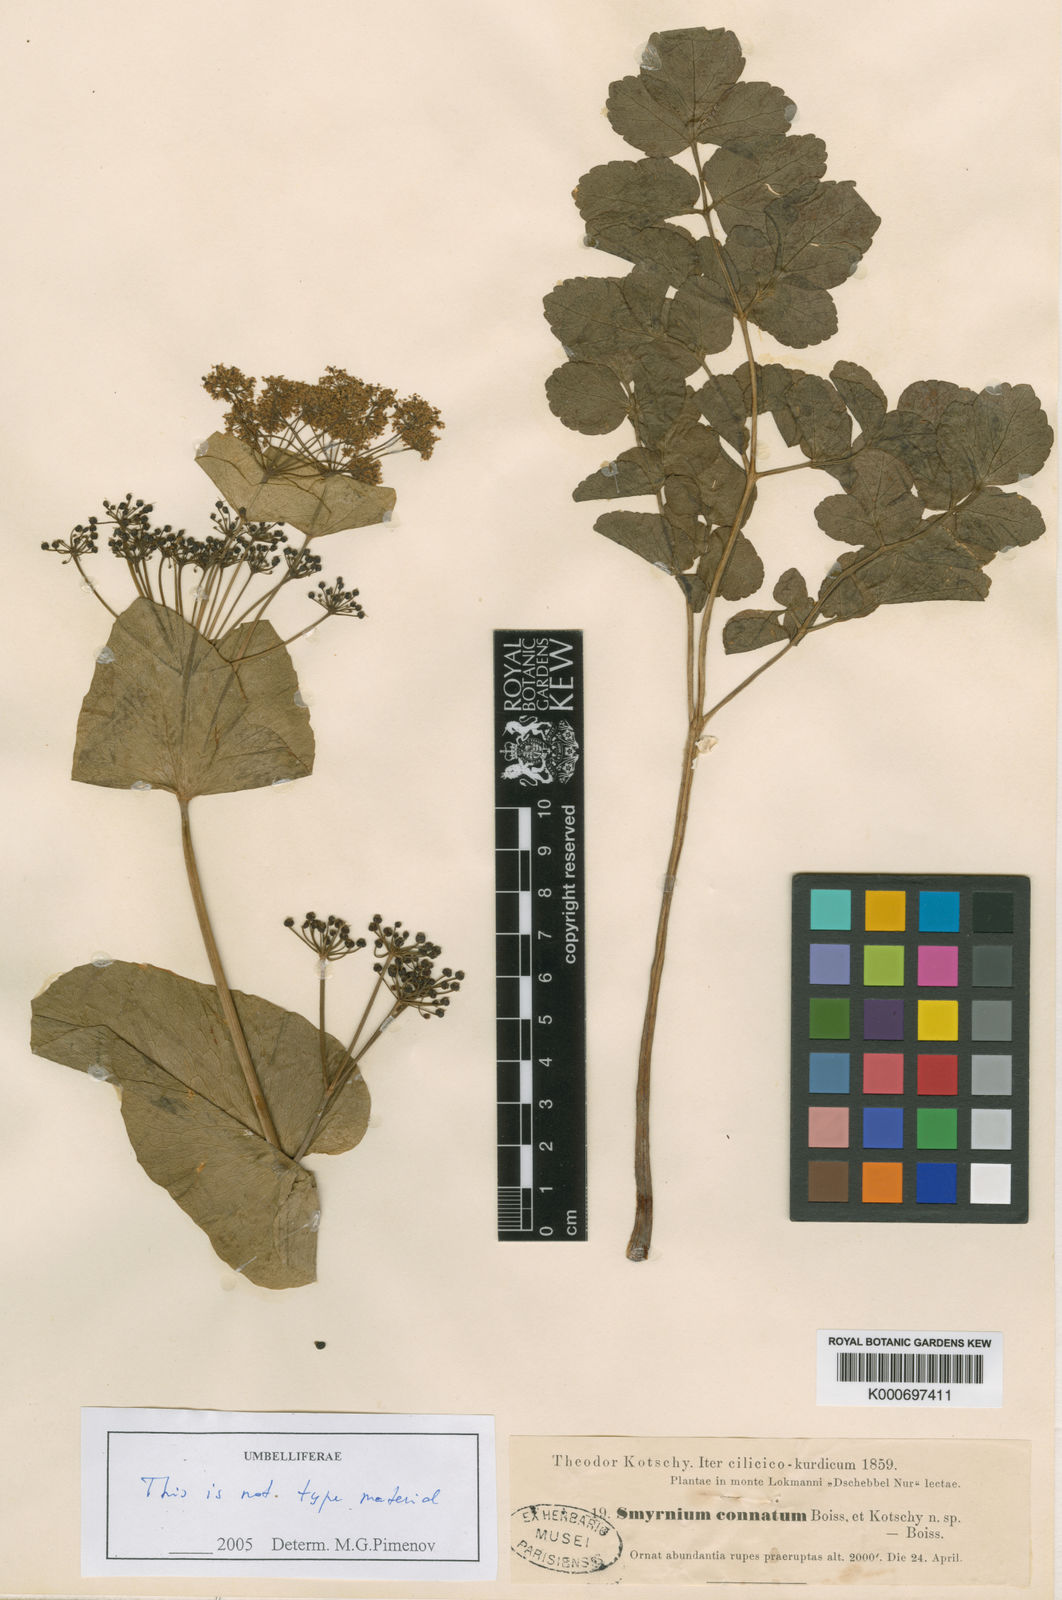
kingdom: Plantae
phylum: Tracheophyta
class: Magnoliopsida
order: Apiales
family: Apiaceae
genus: Smyrnium
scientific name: Smyrnium connatum
